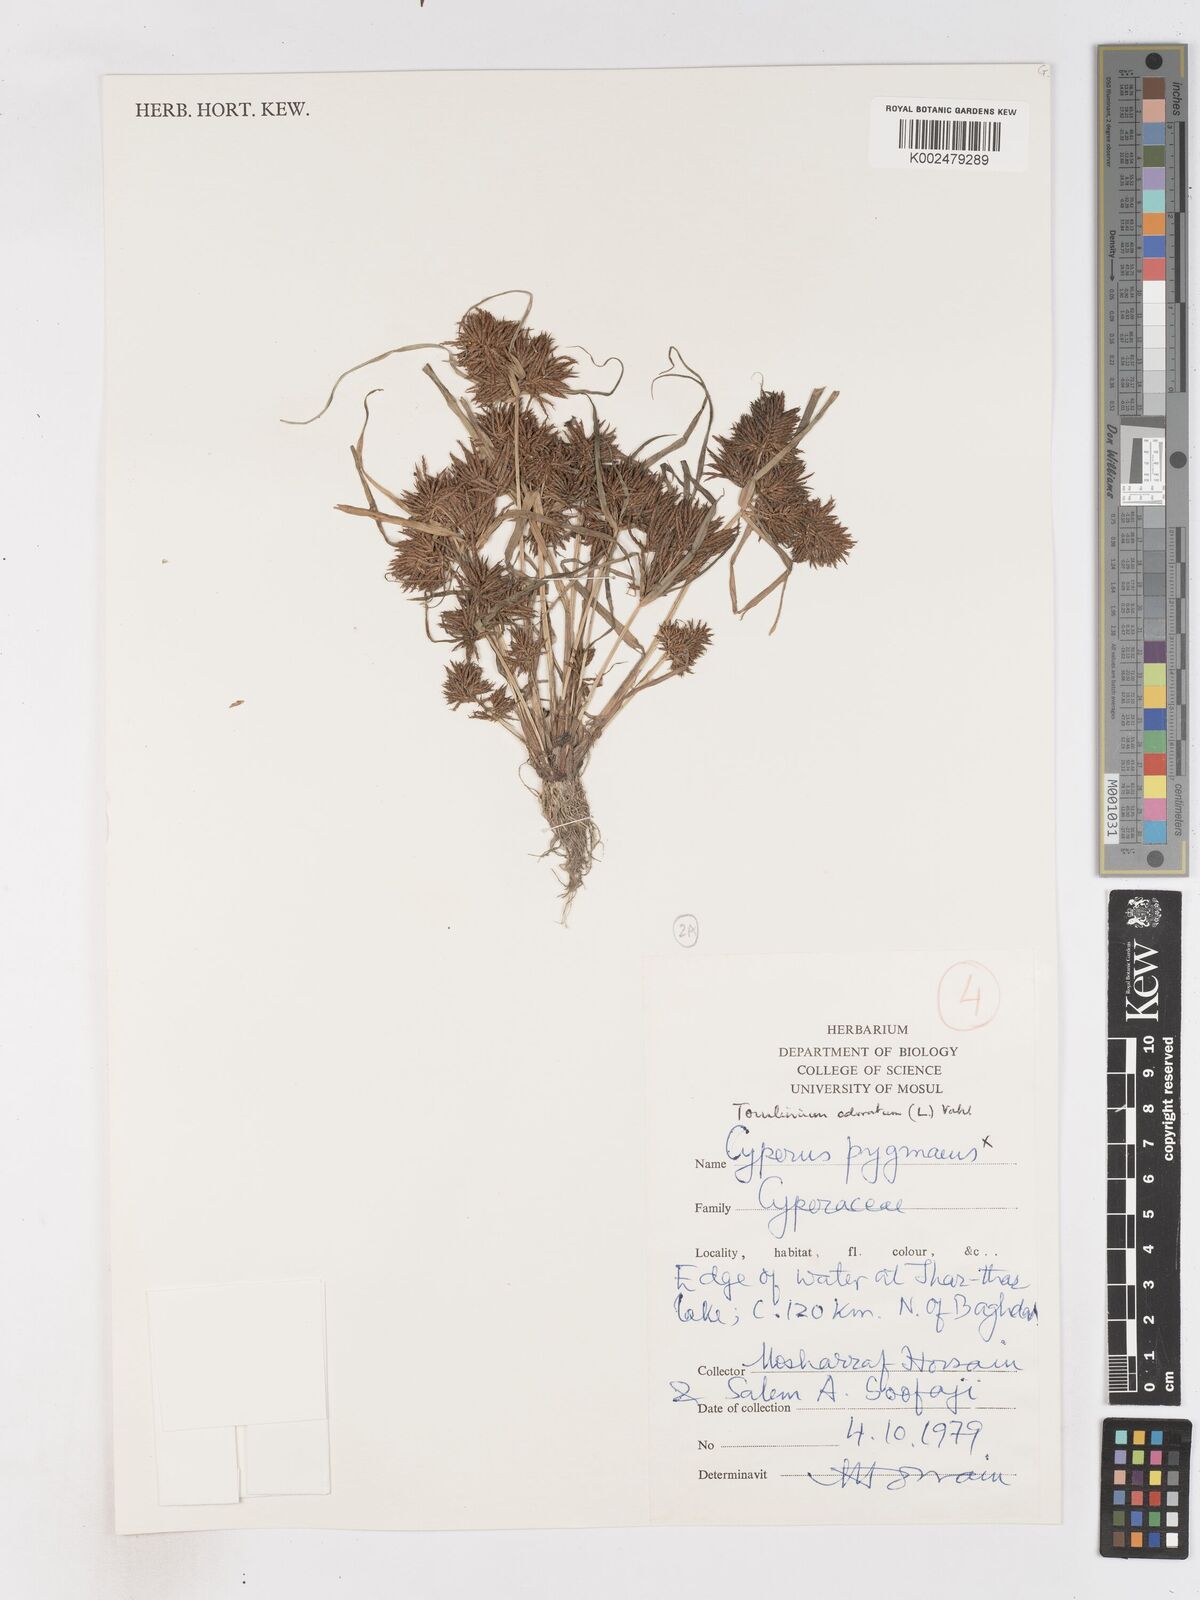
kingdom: Plantae
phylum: Tracheophyta
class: Liliopsida
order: Poales
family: Cyperaceae
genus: Cyperus
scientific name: Cyperus odoratus
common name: Fragrant flatsedge
